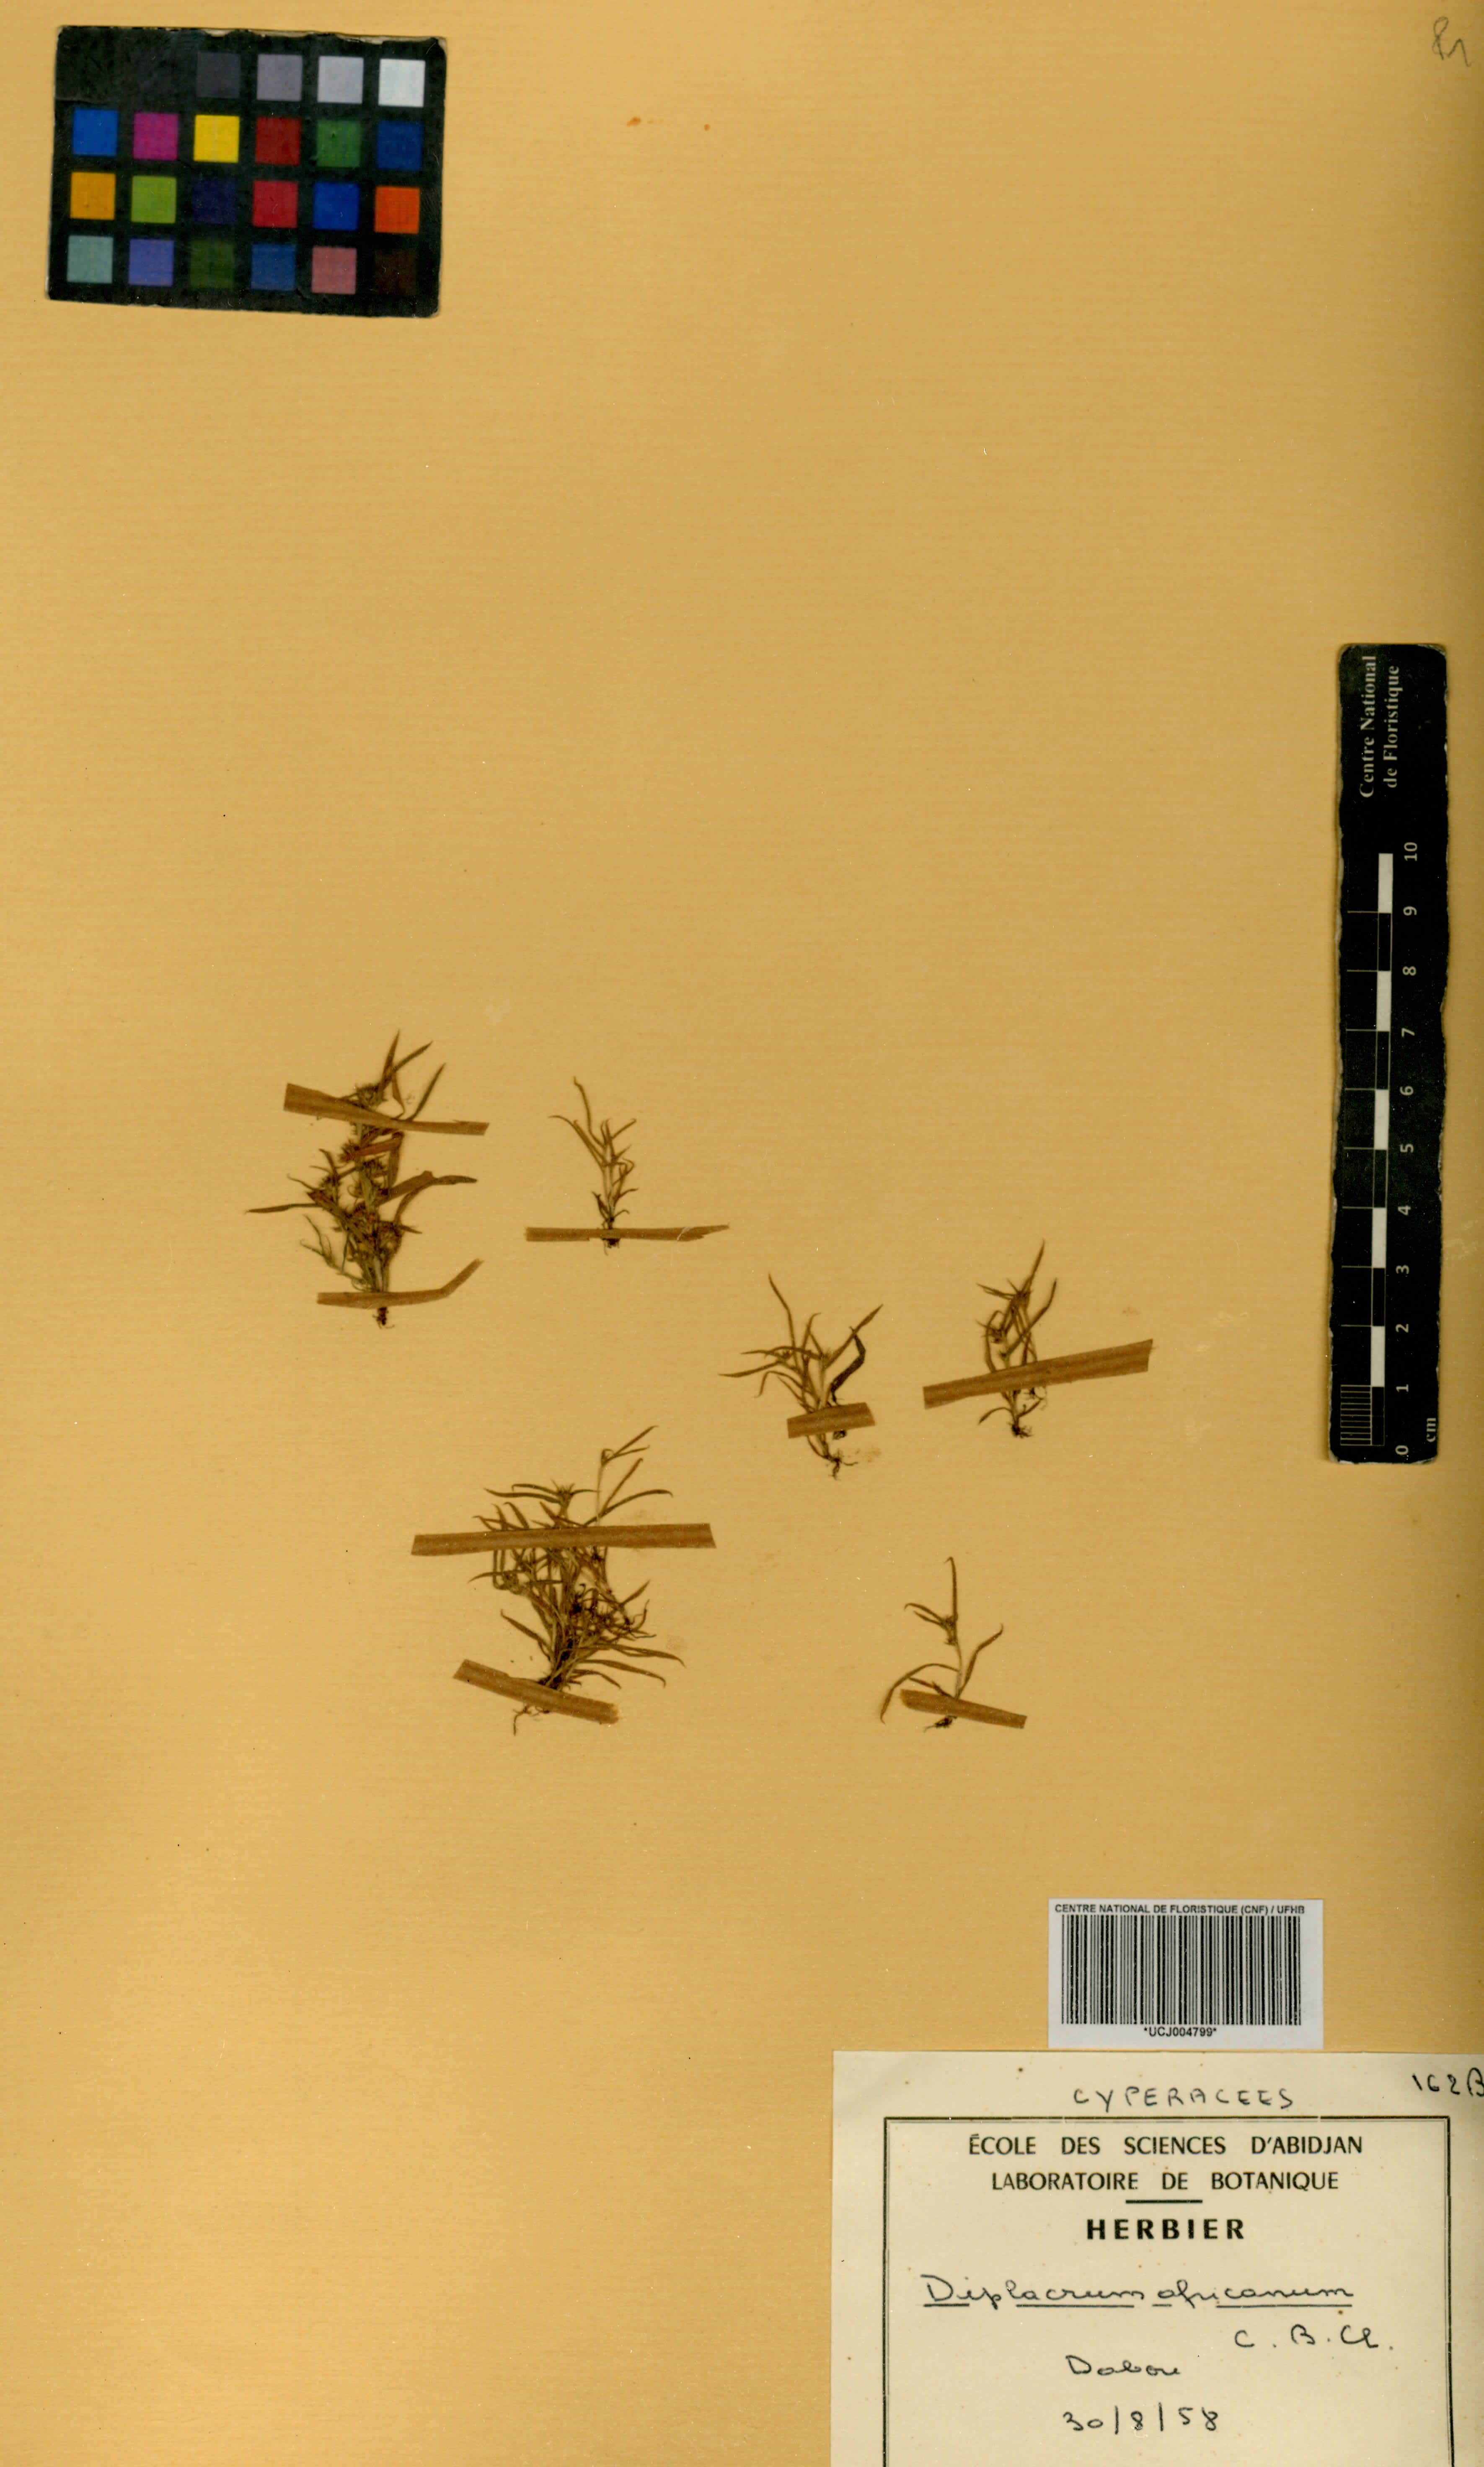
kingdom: Plantae
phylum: Tracheophyta
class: Liliopsida
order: Poales
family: Cyperaceae
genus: Diplacrum
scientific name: Diplacrum africanum
